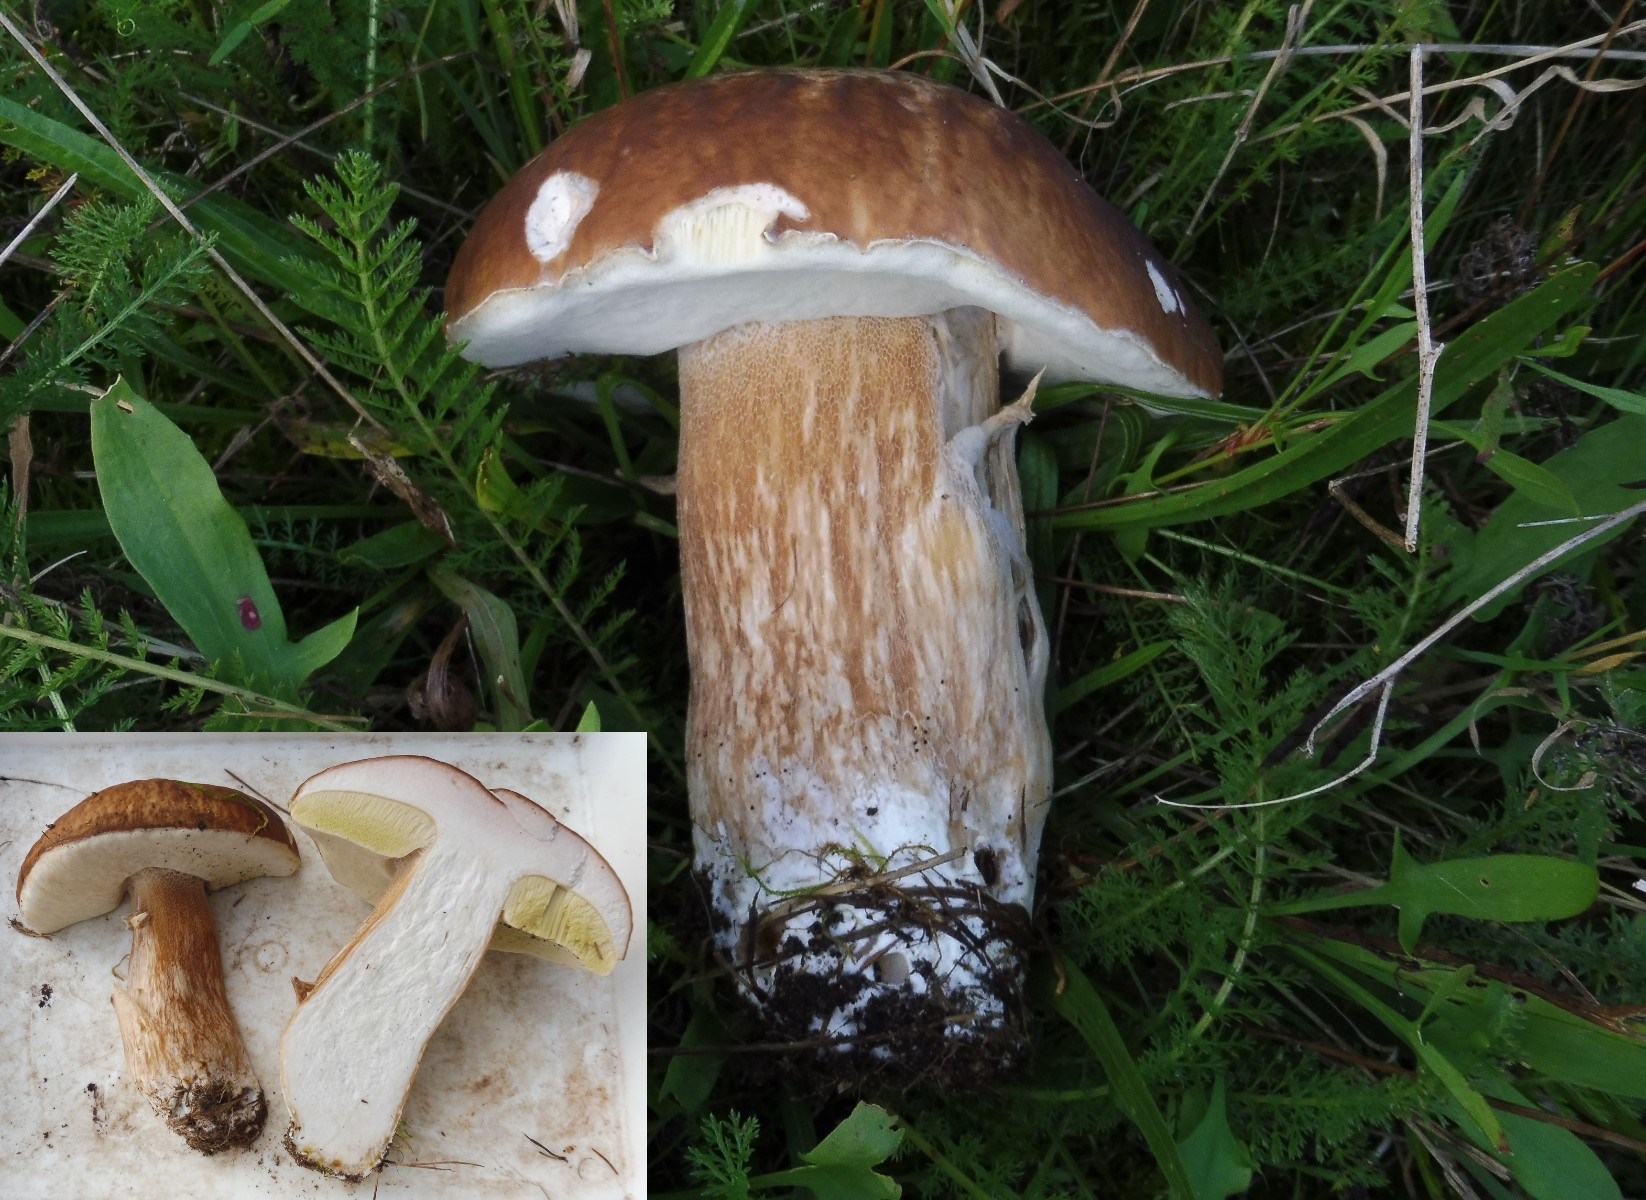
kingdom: Fungi
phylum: Basidiomycota
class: Agaricomycetes
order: Boletales
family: Boletaceae
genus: Boletus
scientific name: Boletus edulis
